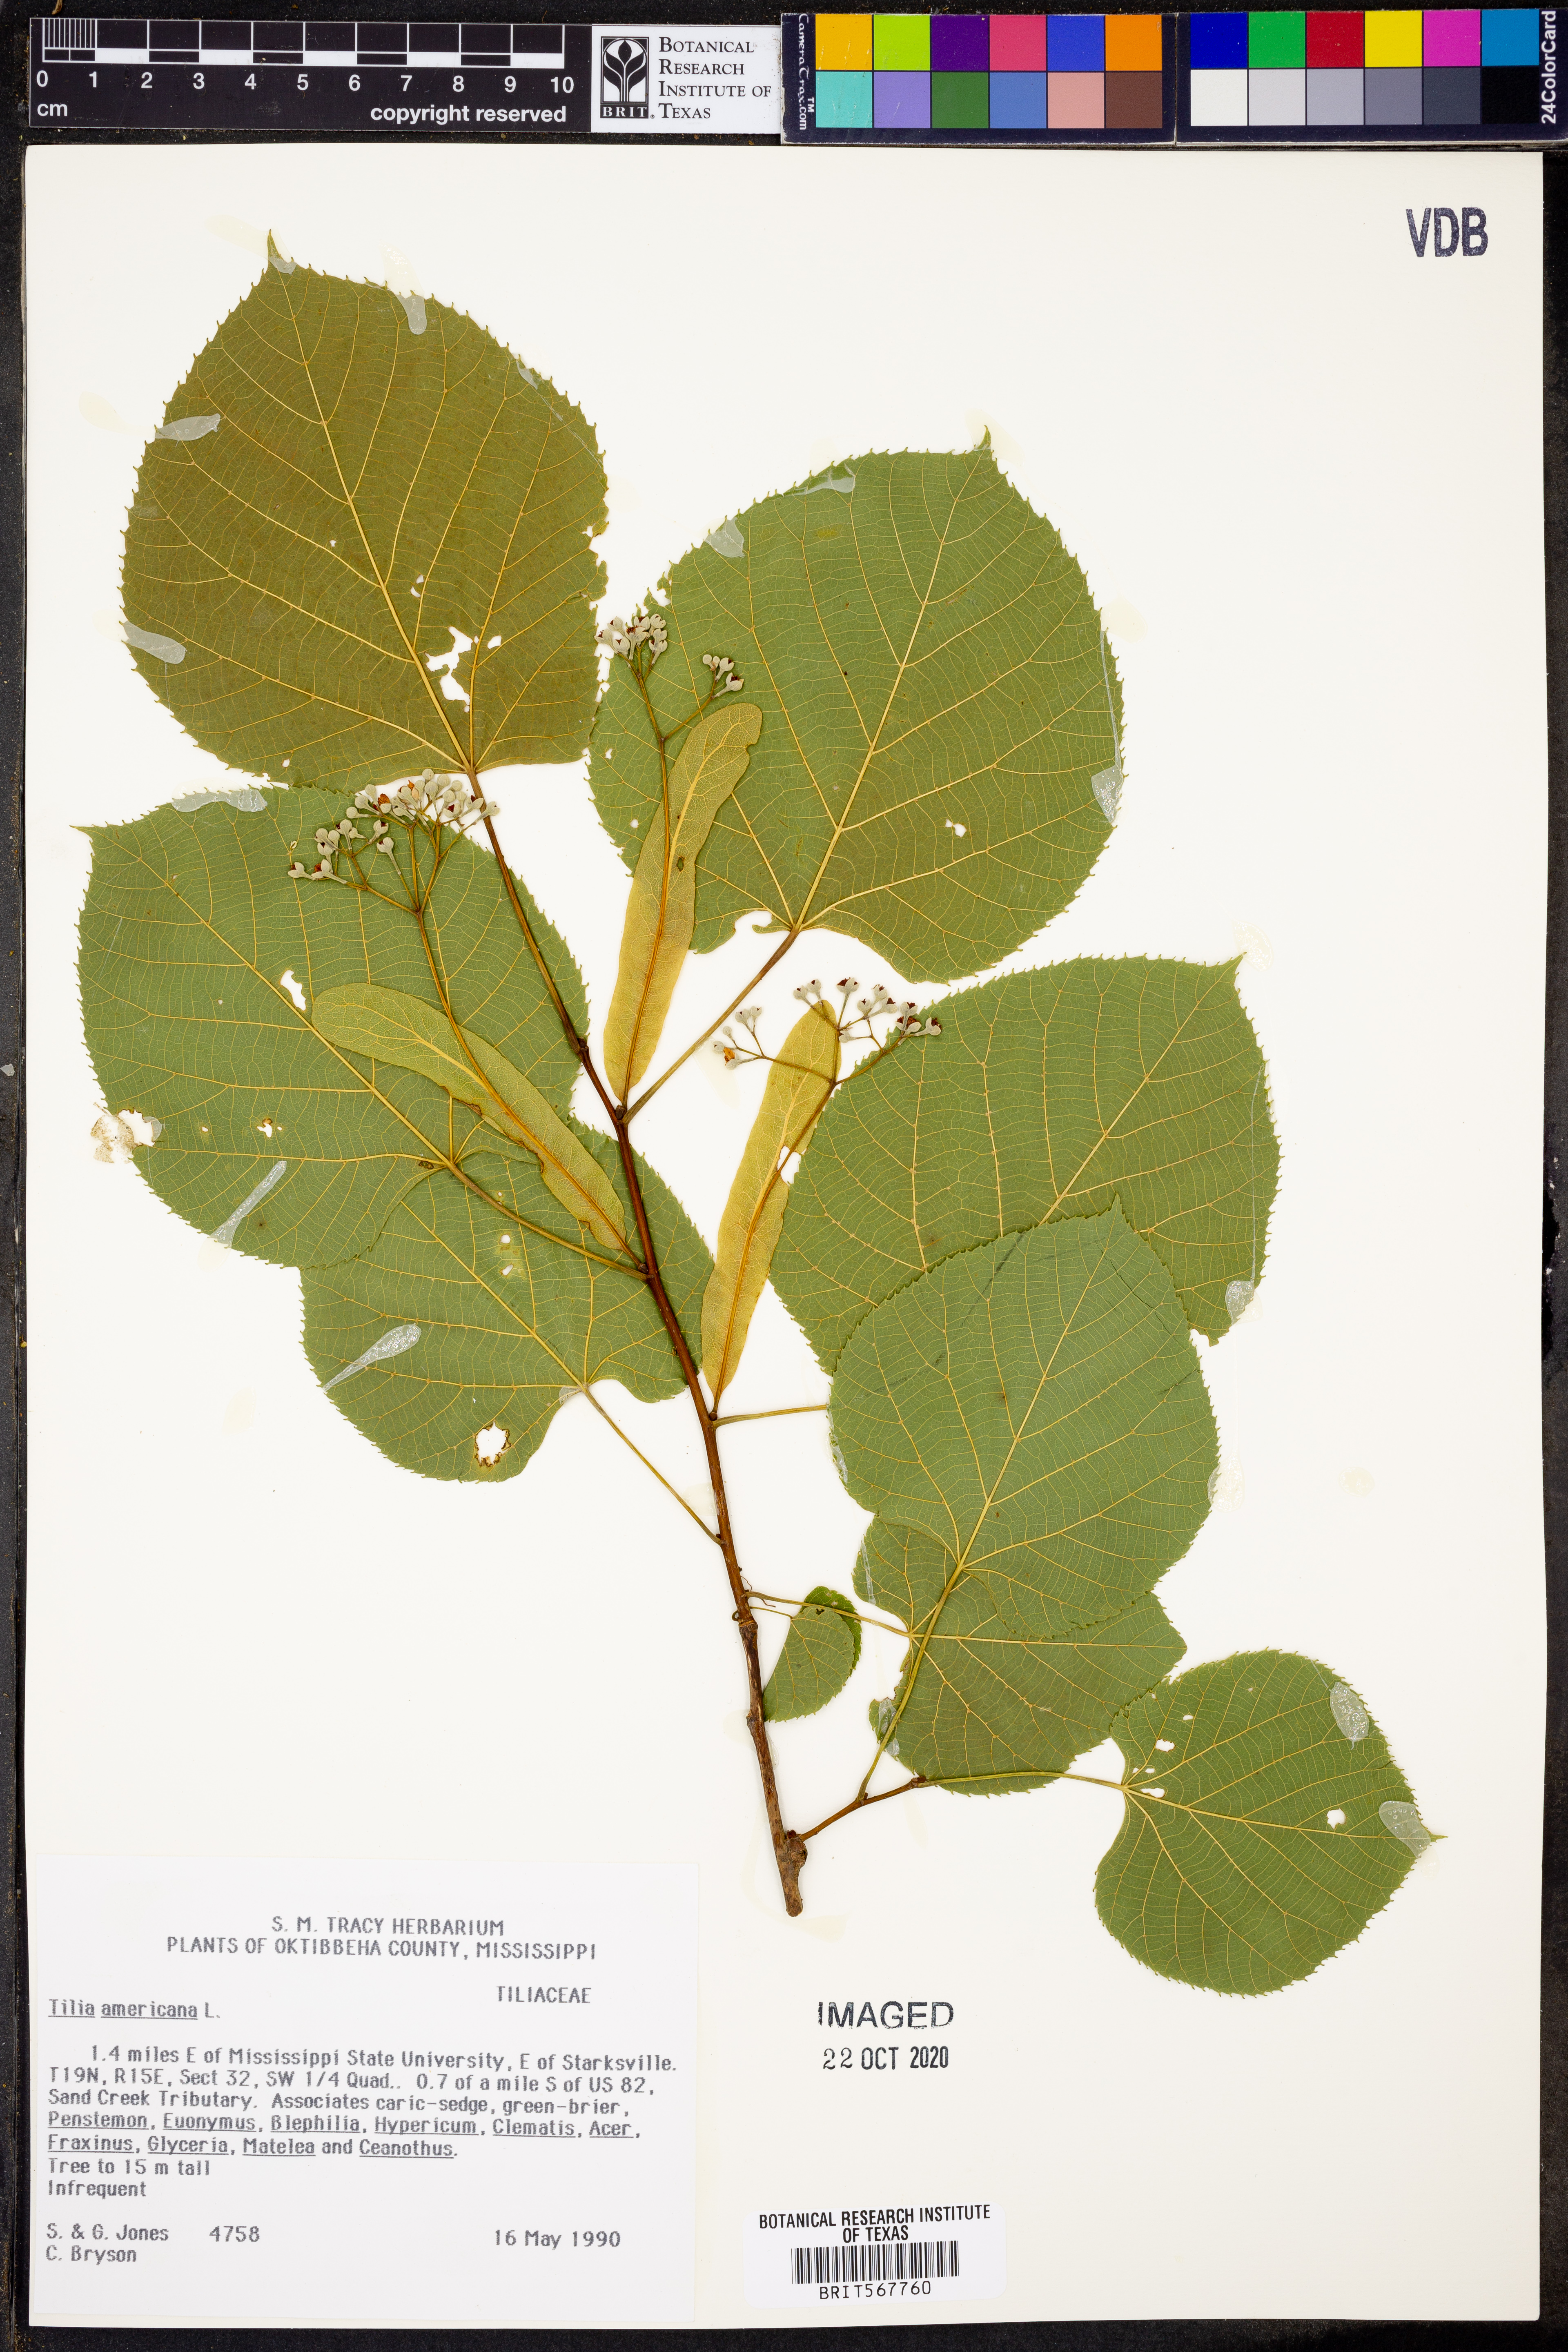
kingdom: Plantae
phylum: Tracheophyta
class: Magnoliopsida
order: Malvales
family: Malvaceae
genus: Tilia
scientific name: Tilia americana
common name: Basswood
